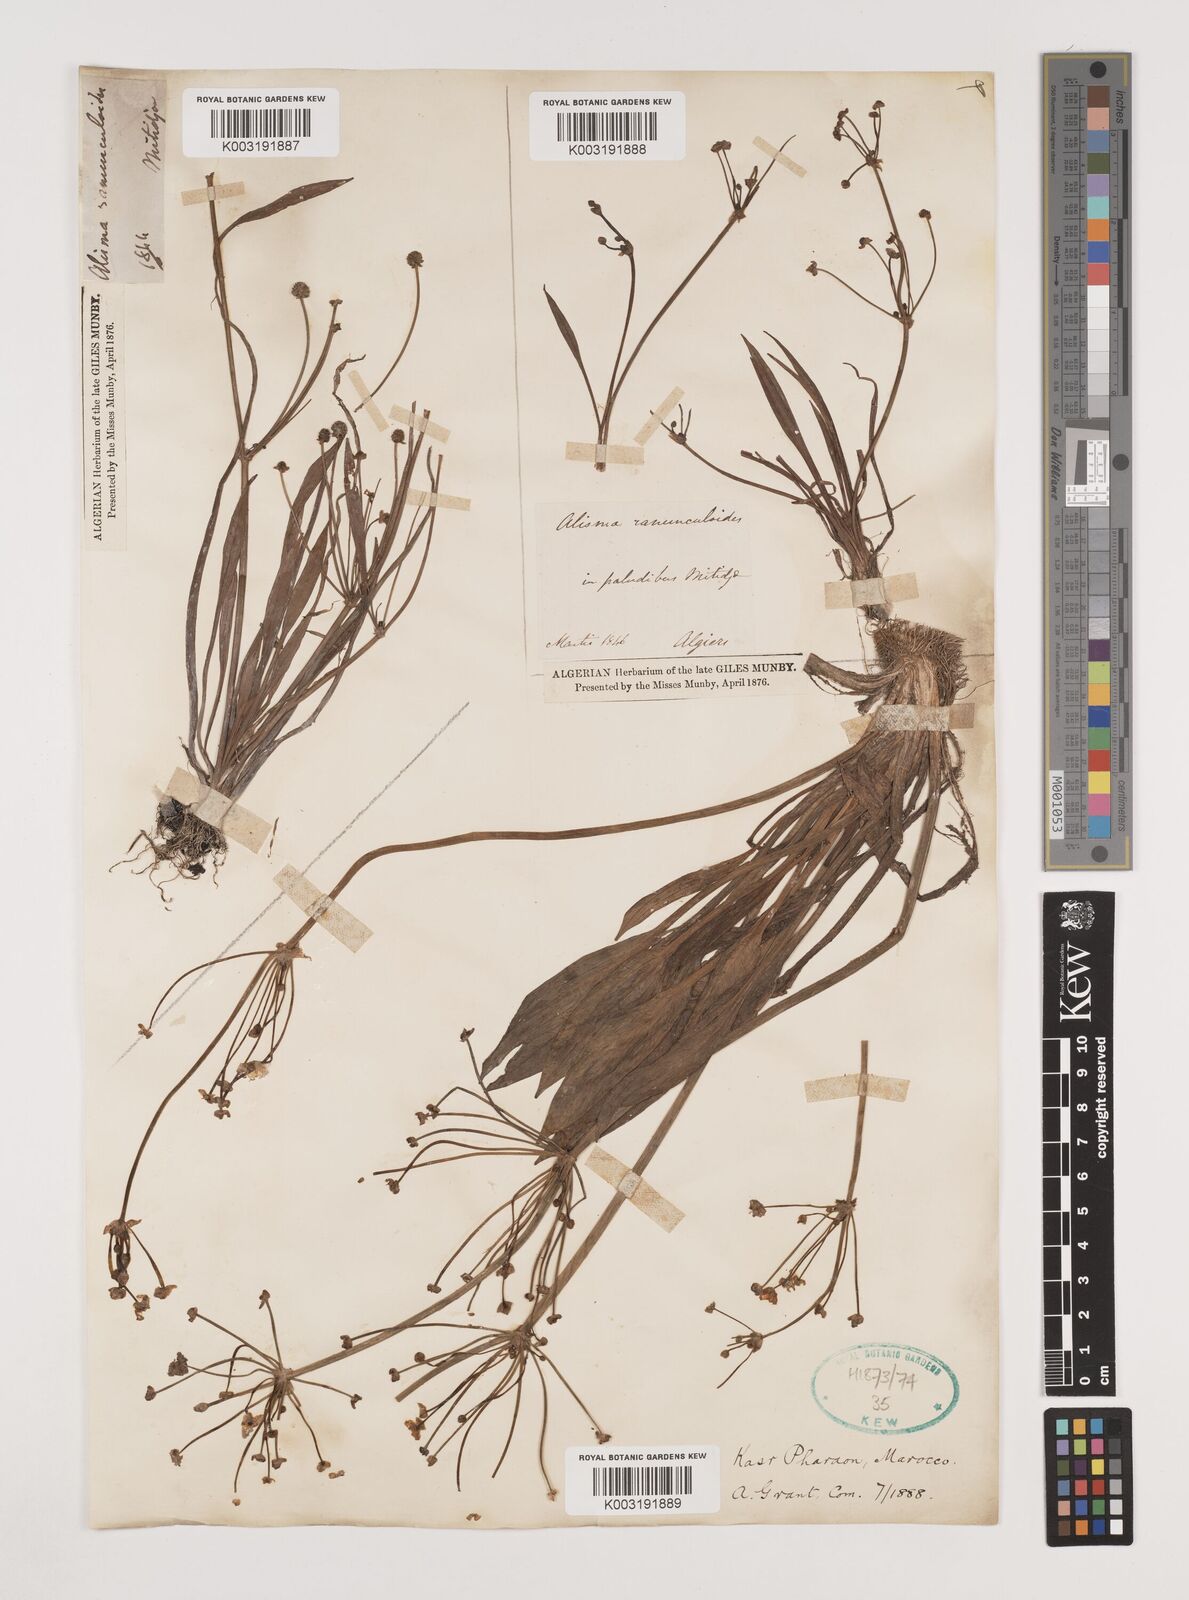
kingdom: Plantae
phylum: Tracheophyta
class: Liliopsida
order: Alismatales
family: Alismataceae
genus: Baldellia
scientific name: Baldellia ranunculoides
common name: Lesser water-plantain
